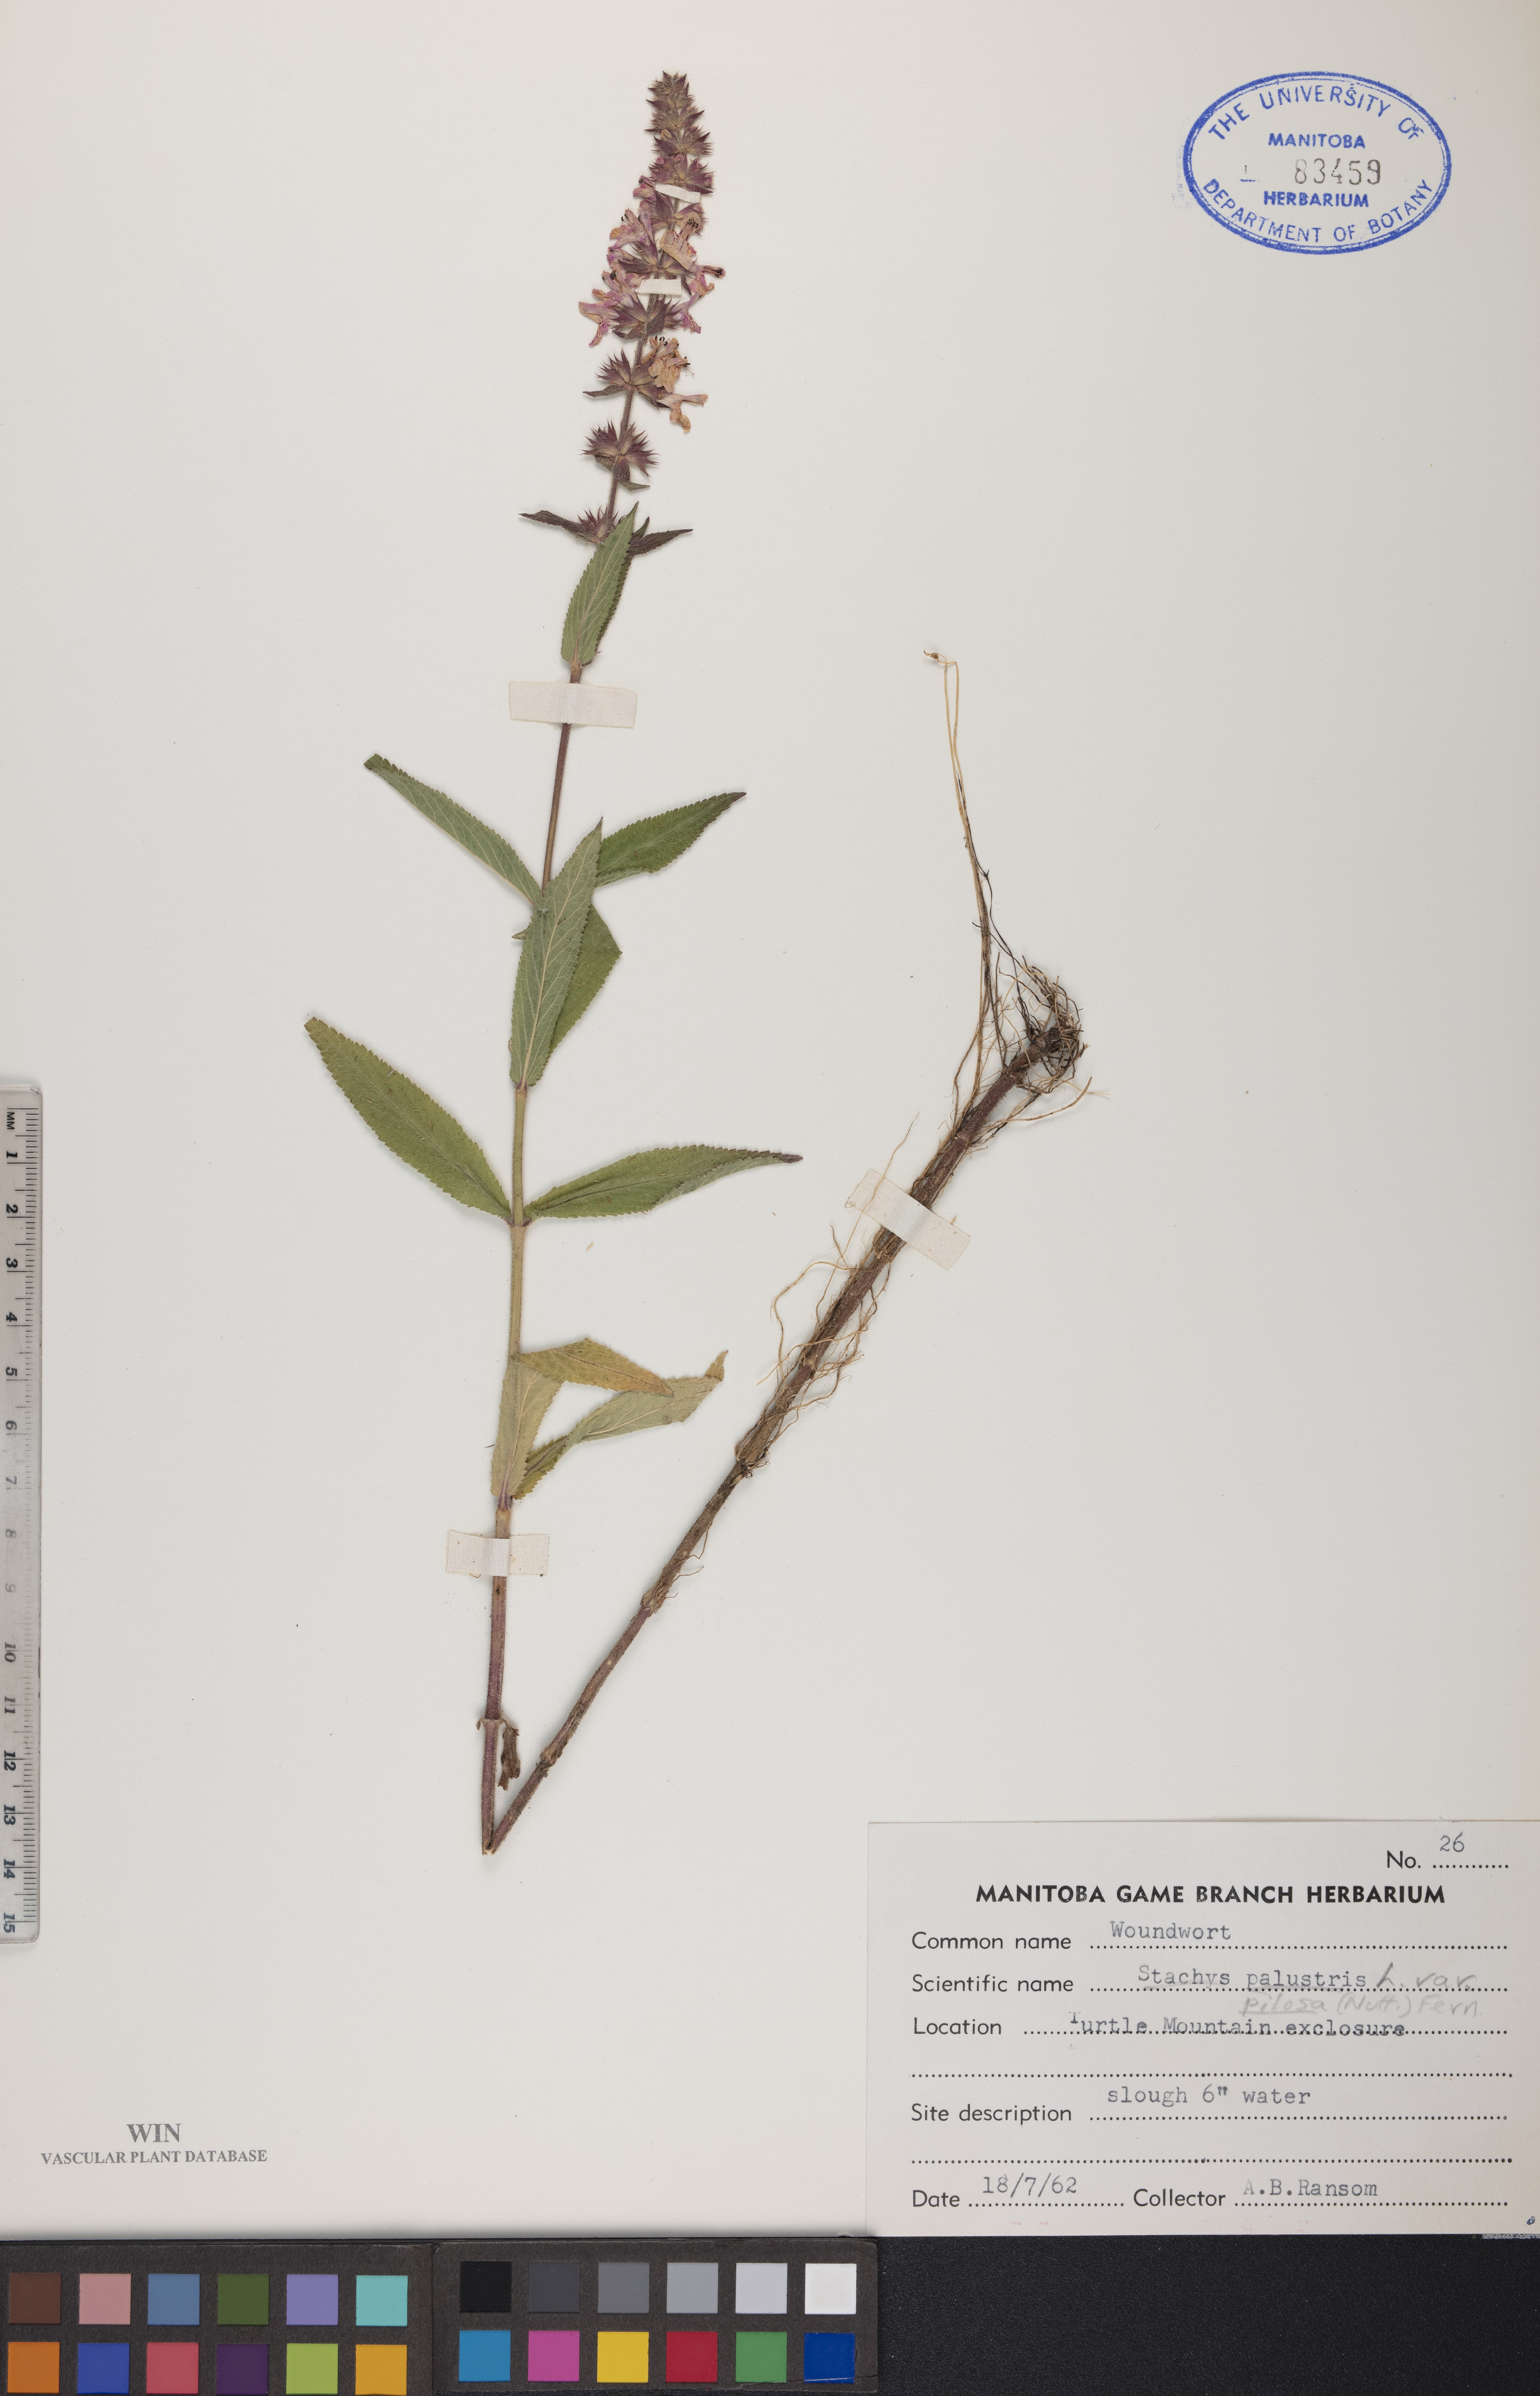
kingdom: Plantae
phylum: Tracheophyta
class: Magnoliopsida
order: Lamiales
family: Lamiaceae
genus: Stachys
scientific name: Stachys pilosa
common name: Hairy hedge-nettle
